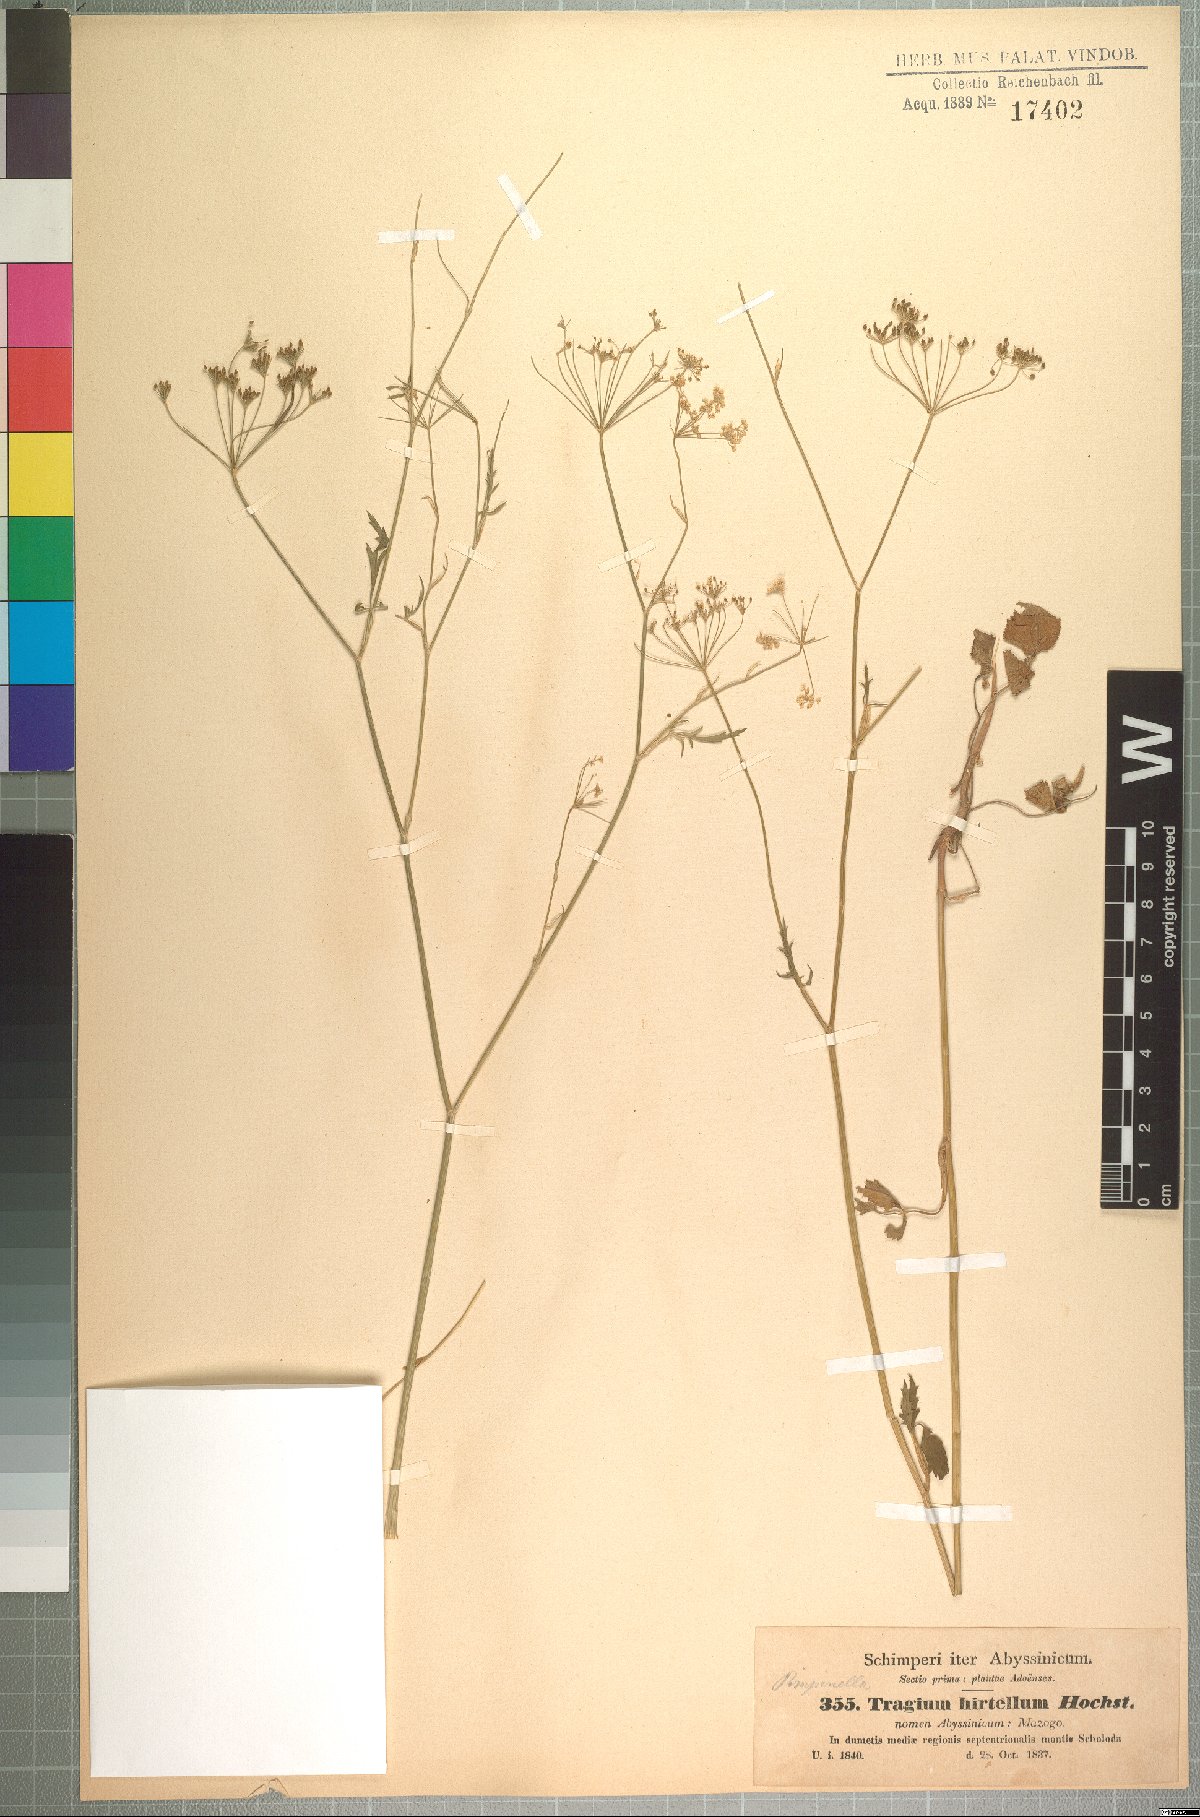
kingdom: Plantae
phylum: Tracheophyta
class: Magnoliopsida
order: Apiales
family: Apiaceae
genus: Pimpinella
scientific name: Pimpinella hirtella
